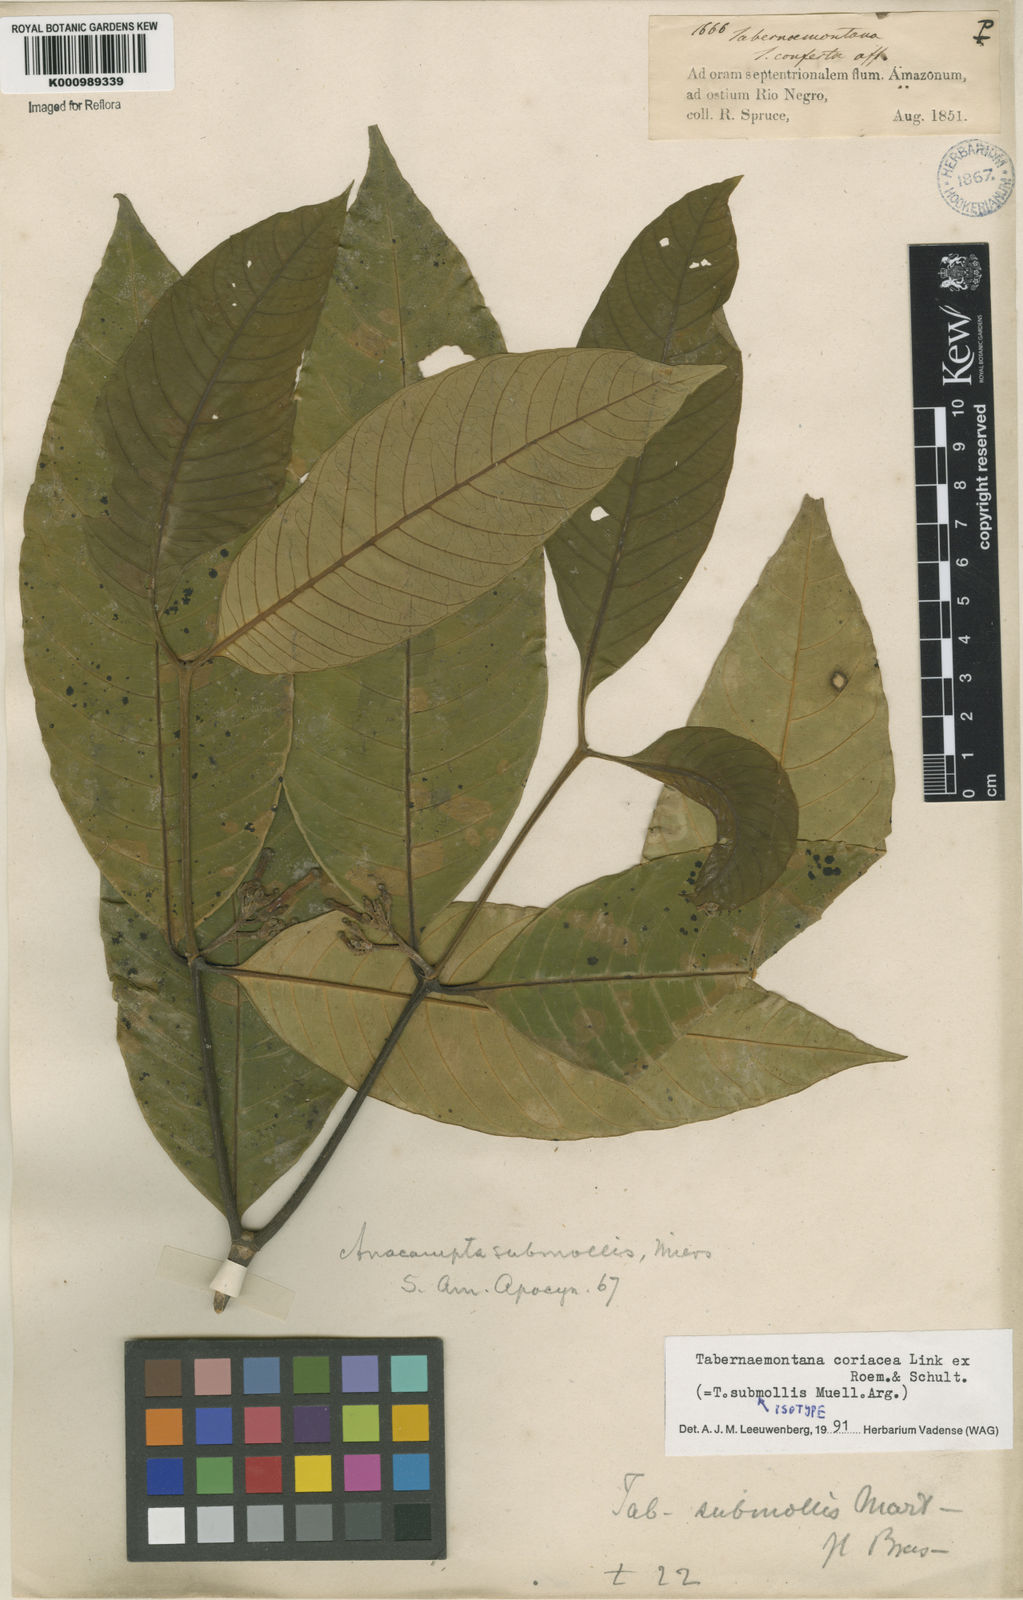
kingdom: Plantae
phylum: Tracheophyta
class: Magnoliopsida
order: Gentianales
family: Apocynaceae
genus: Tabernaemontana
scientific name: Tabernaemontana coriacea
